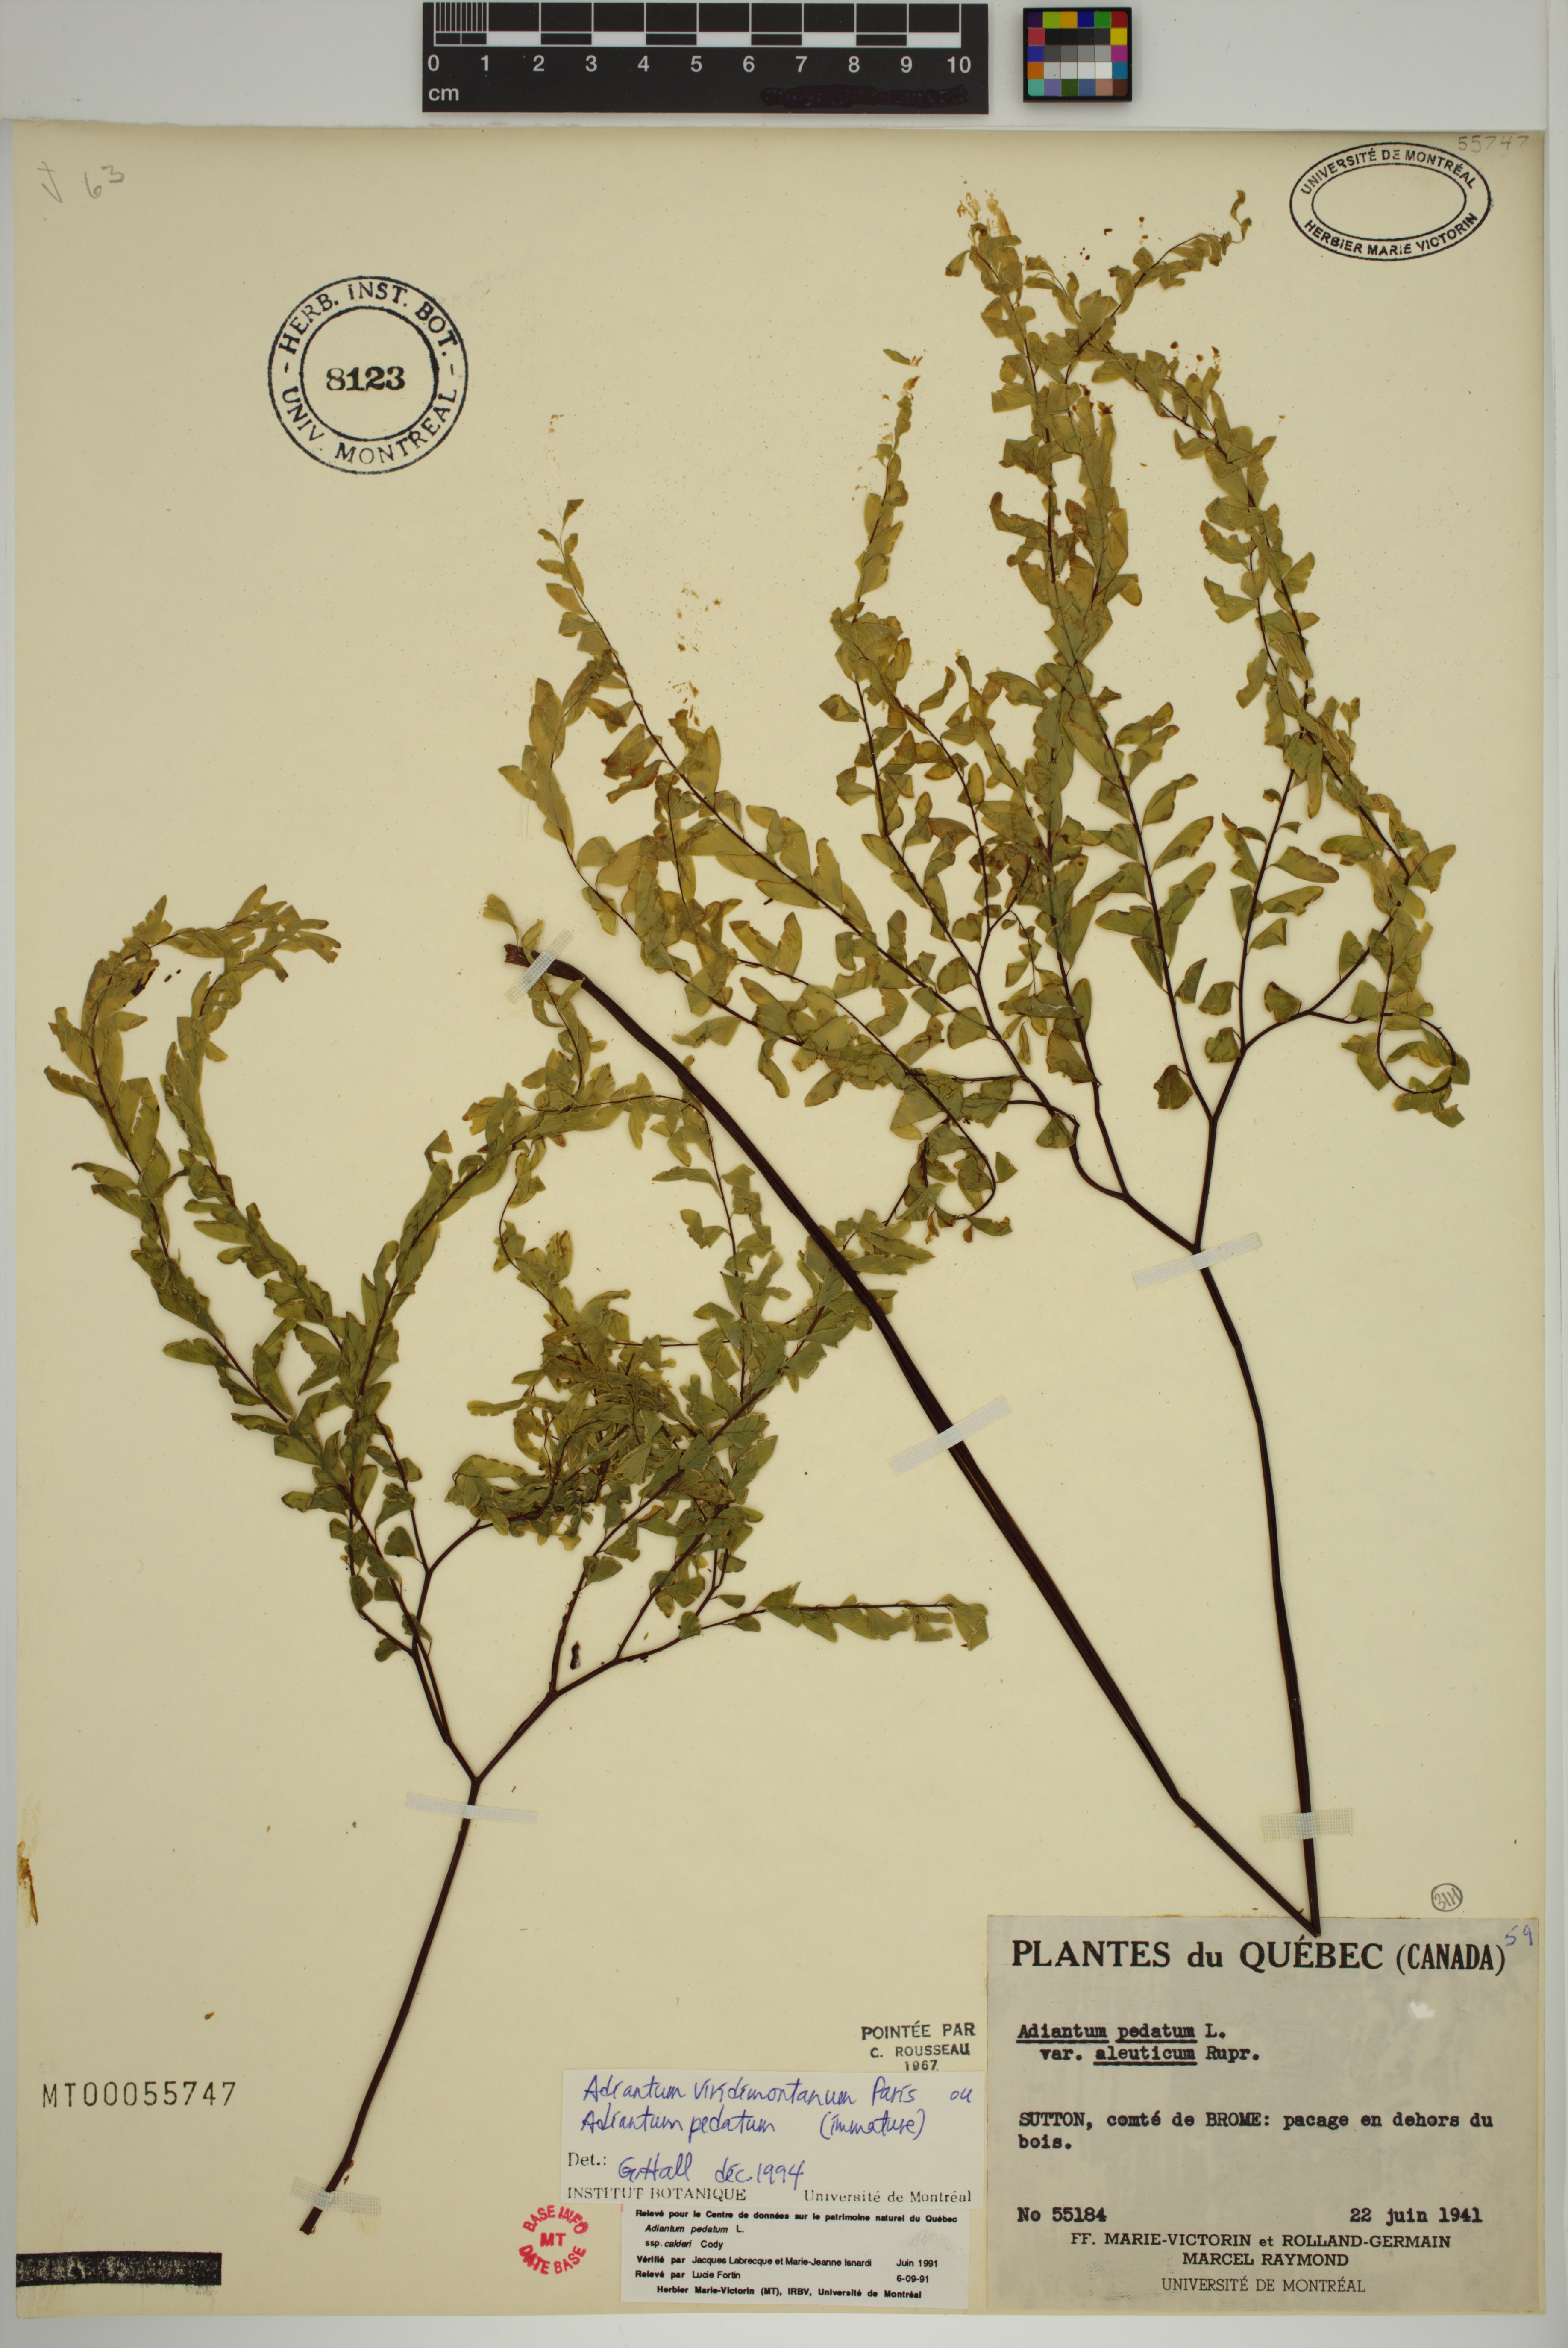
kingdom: Plantae
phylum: Tracheophyta
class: Polypodiopsida
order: Polypodiales
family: Pteridaceae
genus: Adiantum
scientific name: Adiantum viridimontanum
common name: Green mountain maidenhair
